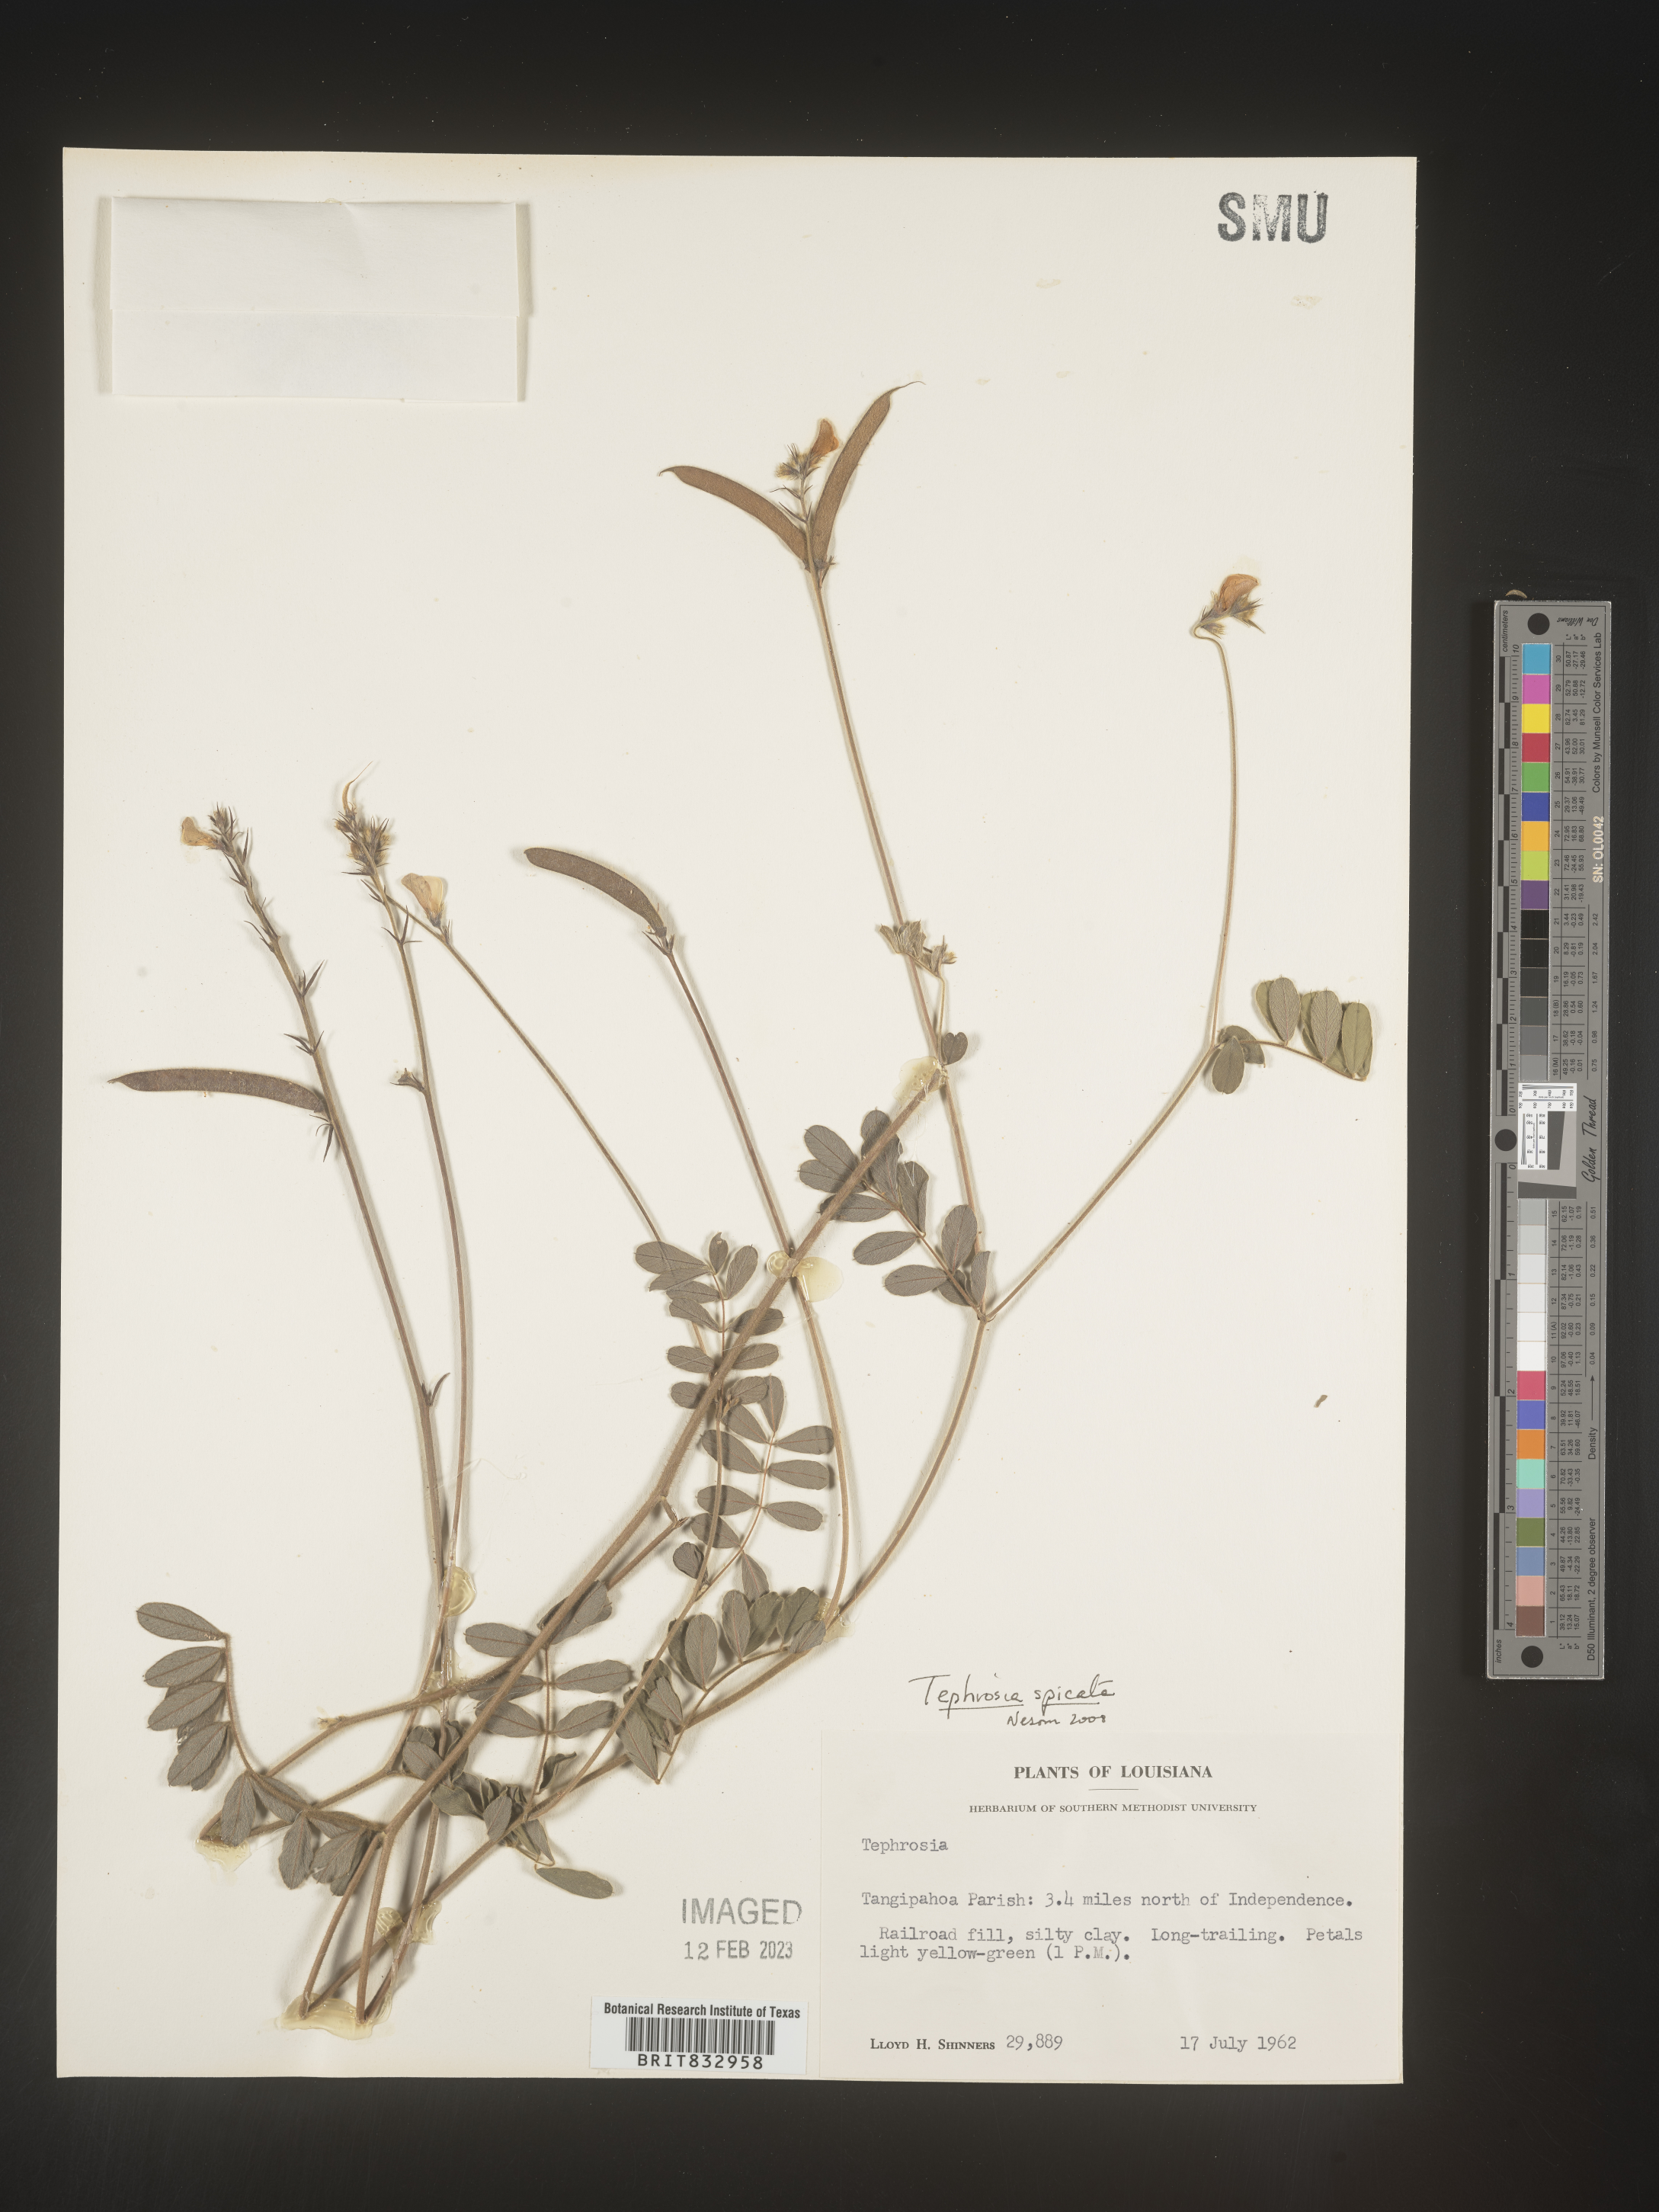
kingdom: Plantae
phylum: Tracheophyta
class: Magnoliopsida
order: Fabales
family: Fabaceae
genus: Tephrosia
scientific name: Tephrosia spicata
